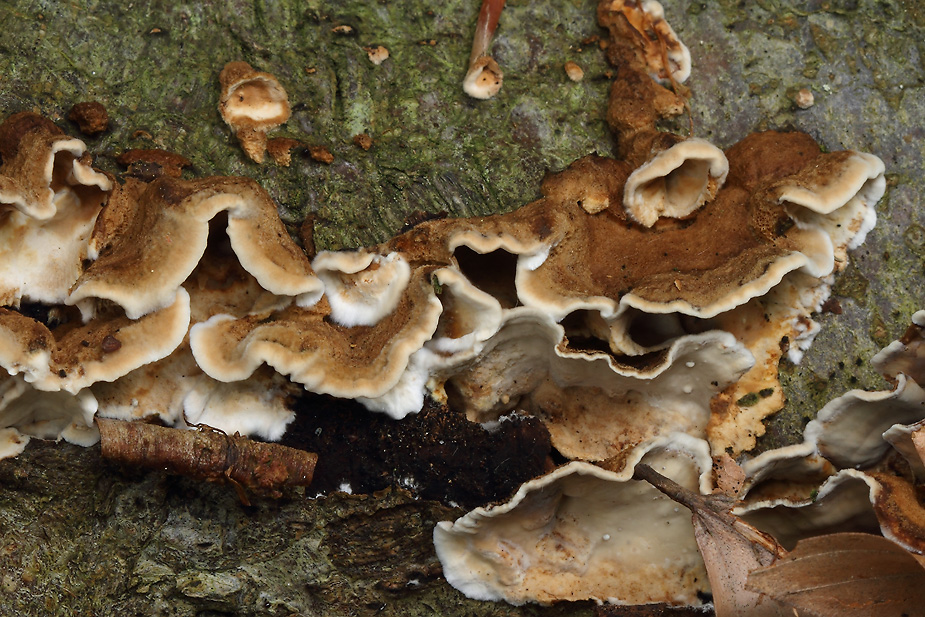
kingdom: Fungi
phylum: Basidiomycota
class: Agaricomycetes
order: Russulales
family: Hericiaceae
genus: Laxitextum
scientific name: Laxitextum bicolor
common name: tvefarvet filtskind
